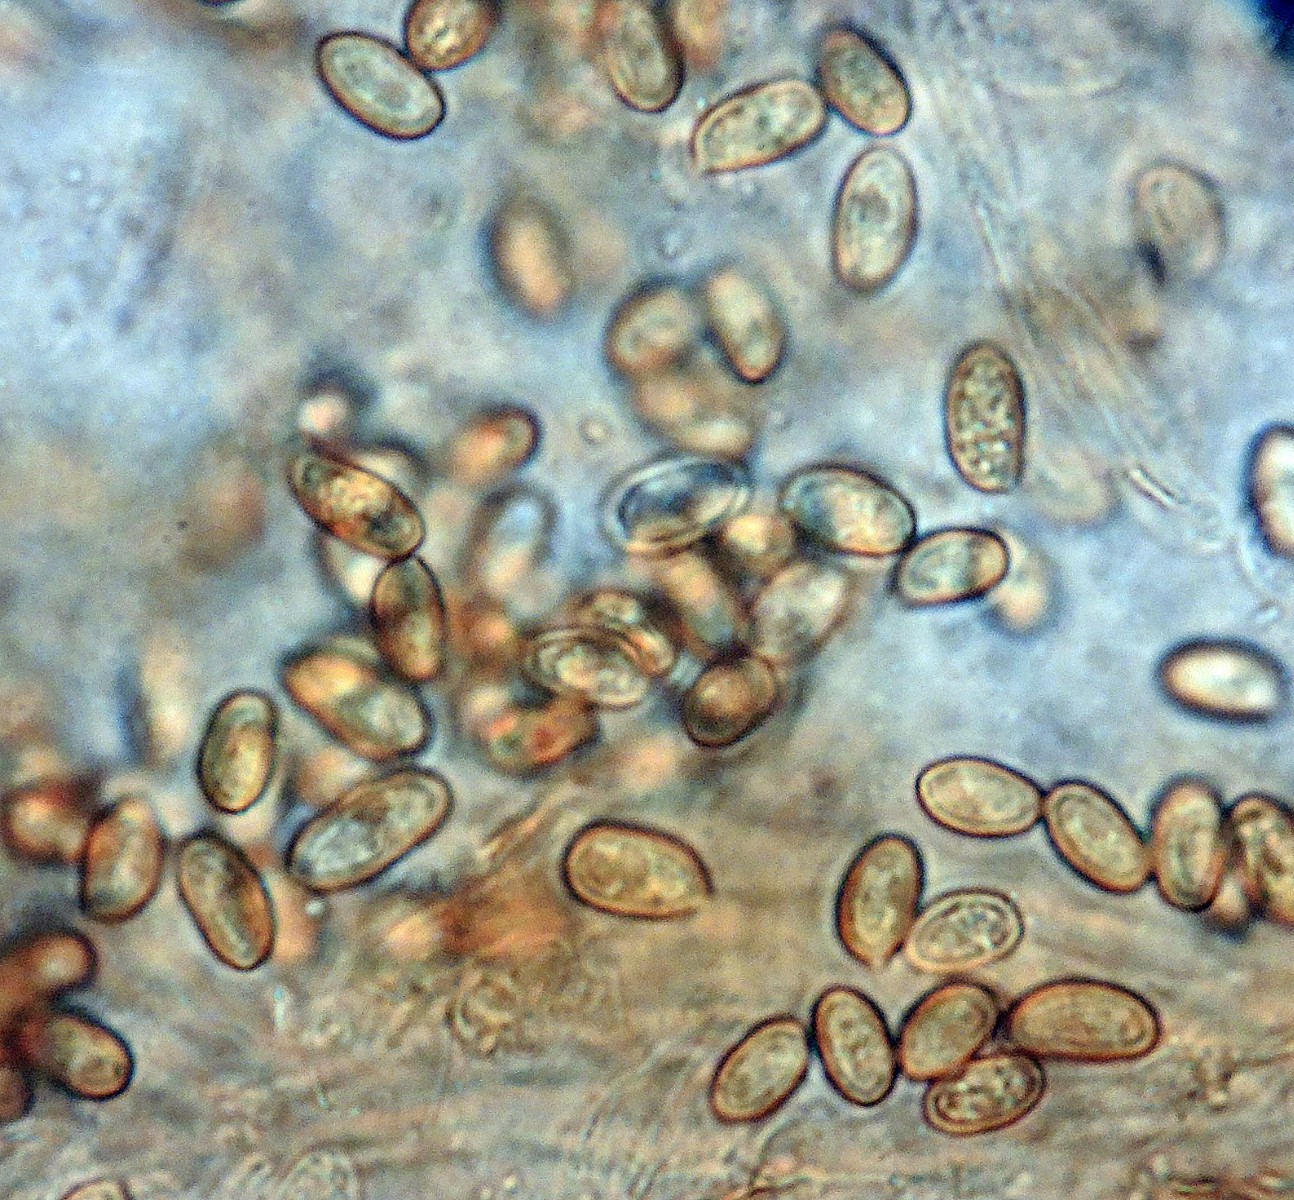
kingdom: Fungi
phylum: Basidiomycota
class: Agaricomycetes
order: Agaricales
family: Crassisporiaceae
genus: Romagnesiella
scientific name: Romagnesiella clavus
